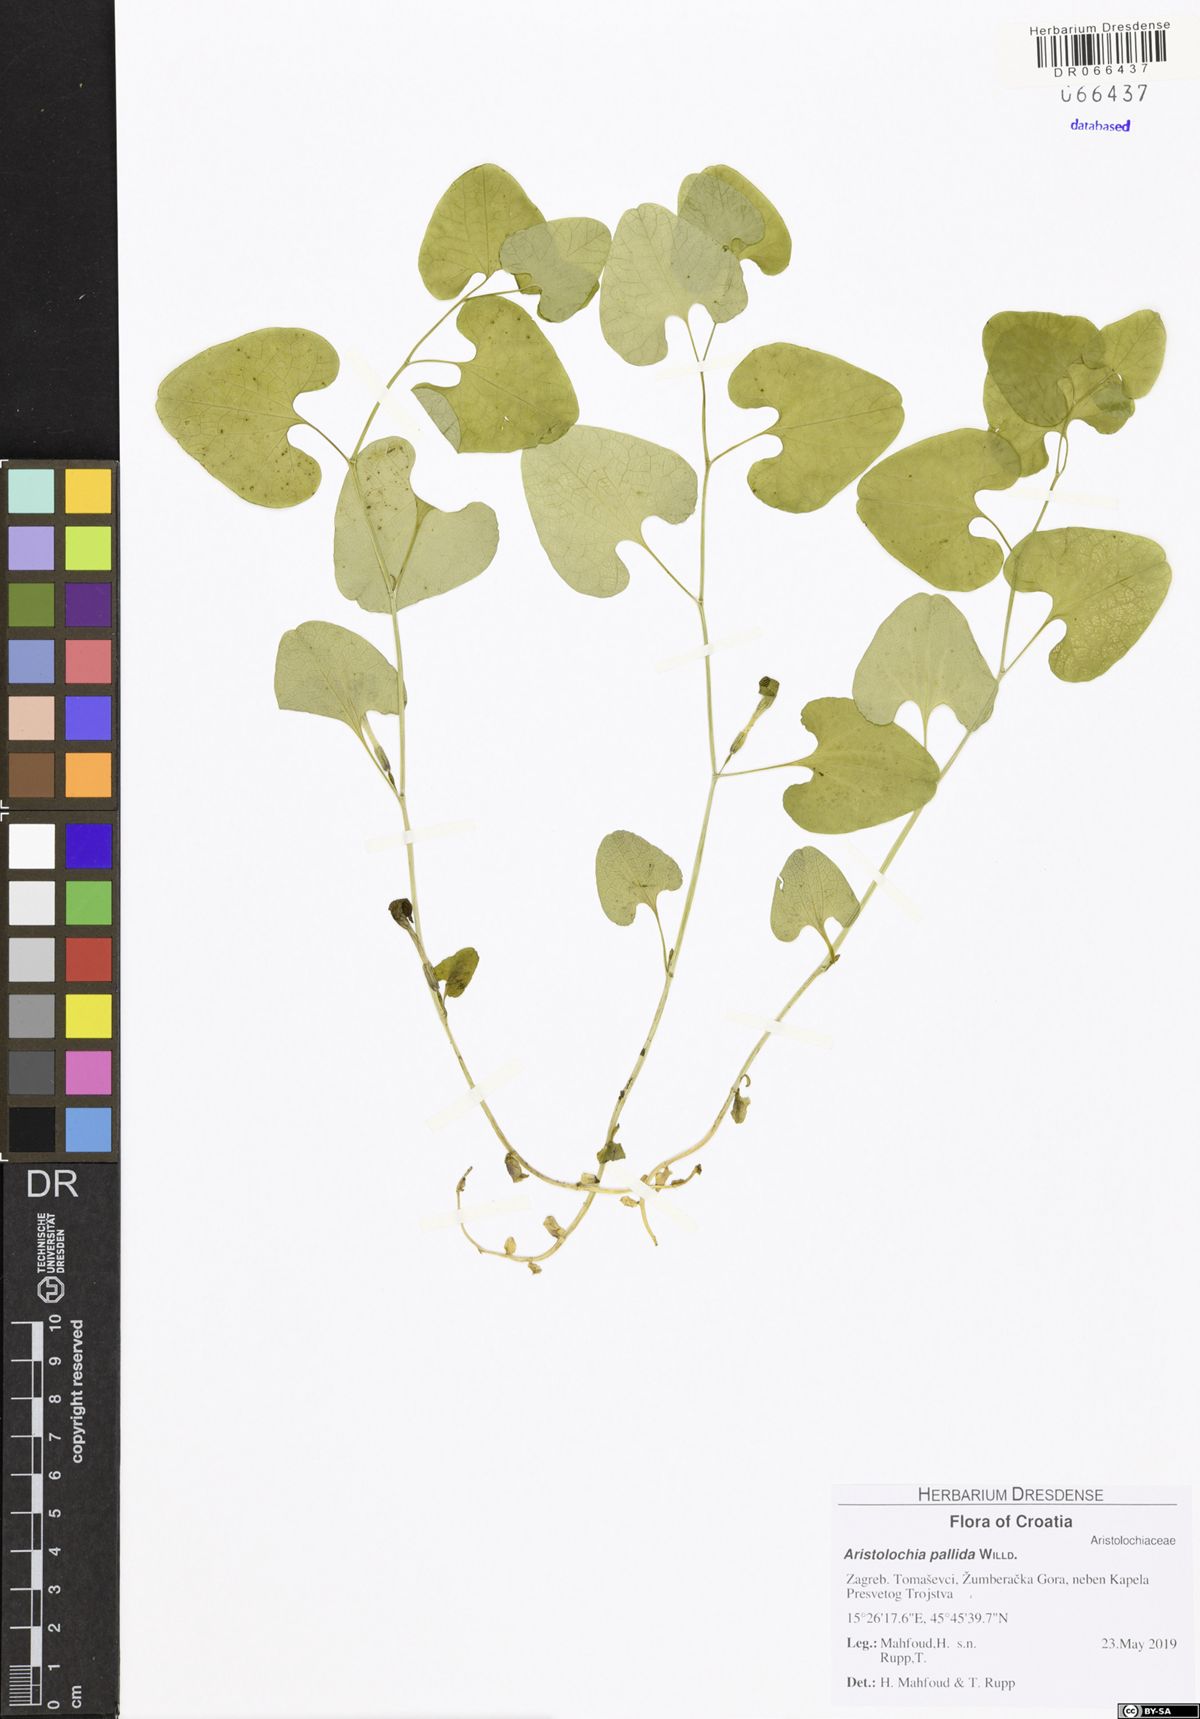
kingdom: Plantae
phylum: Tracheophyta
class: Magnoliopsida
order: Piperales
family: Aristolochiaceae
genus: Aristolochia
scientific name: Aristolochia pallida
